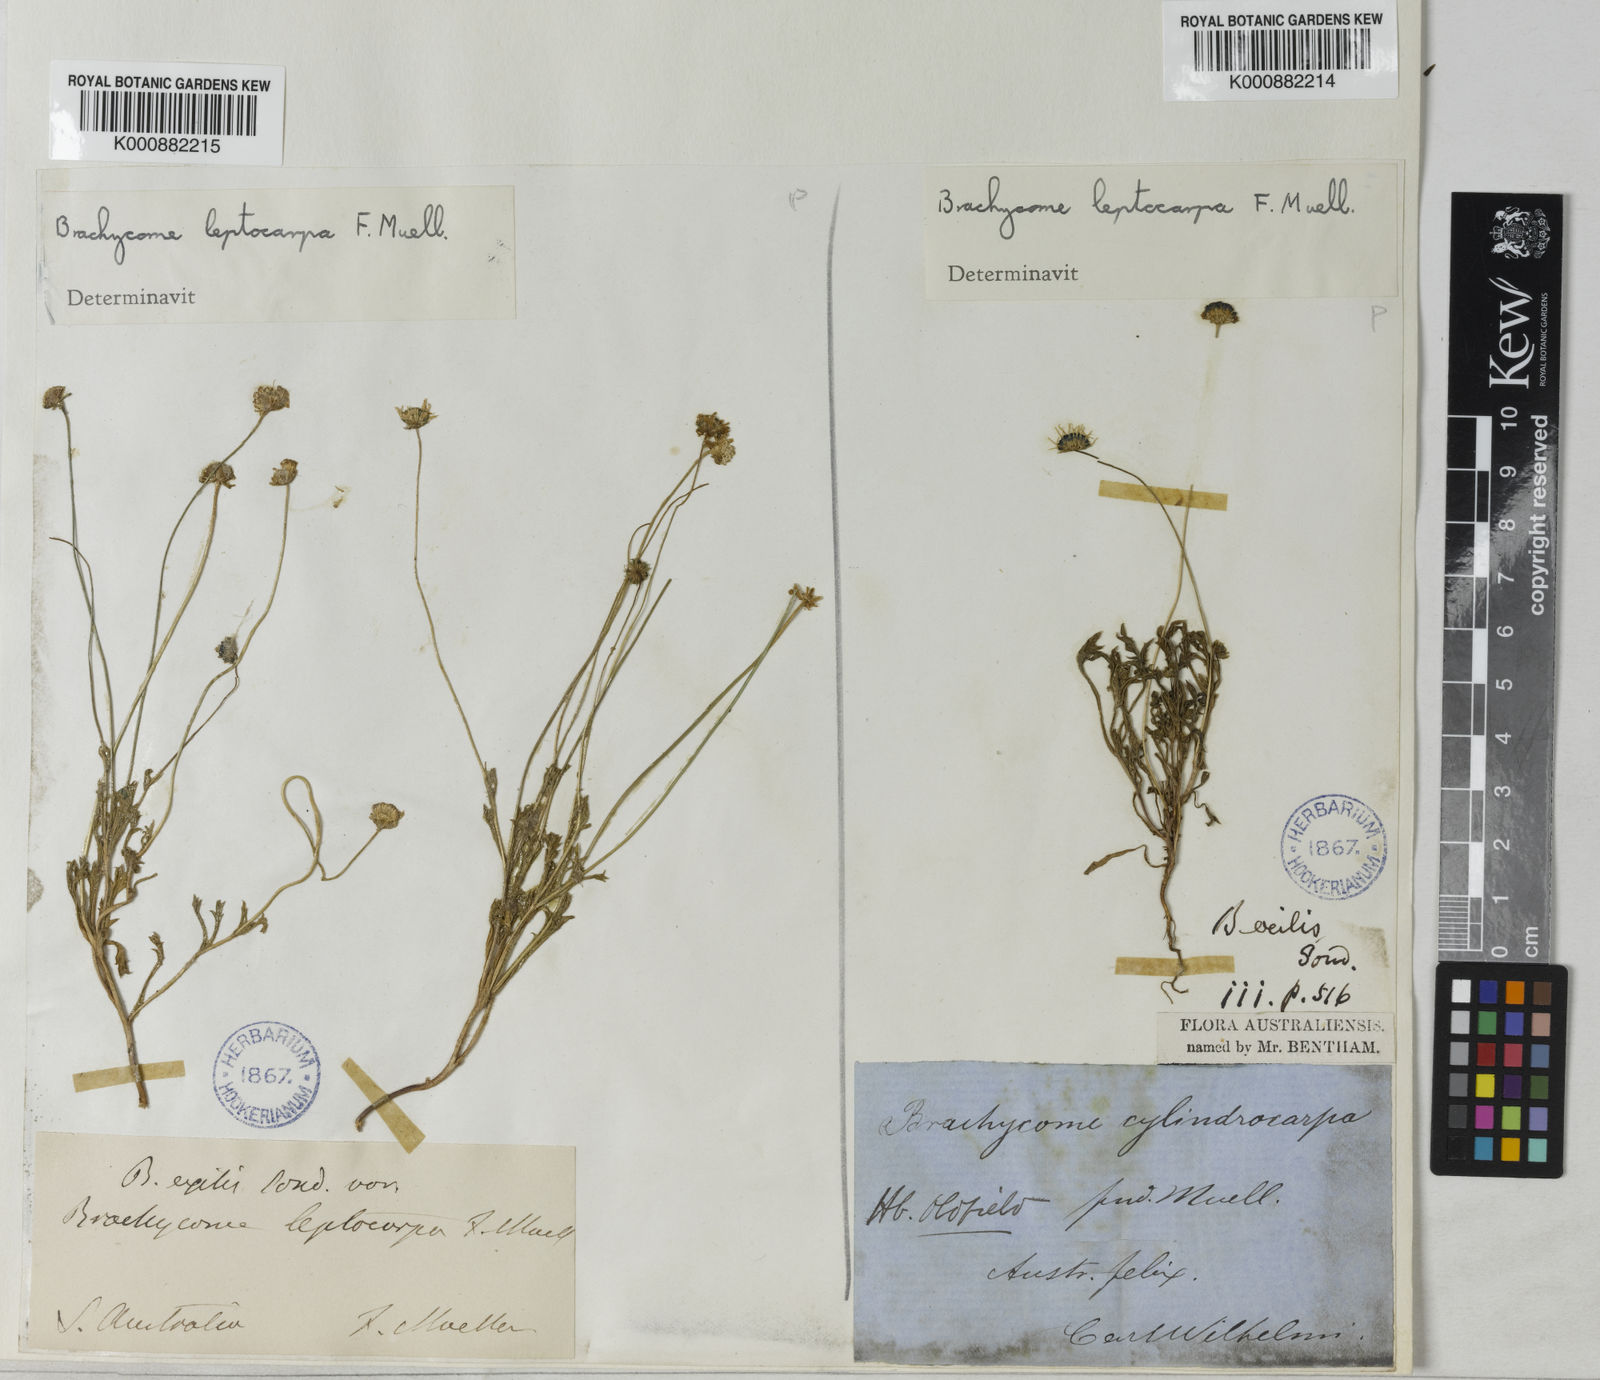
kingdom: Plantae
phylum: Tracheophyta
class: Magnoliopsida
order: Asterales
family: Asteraceae
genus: Brachyscome
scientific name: Brachyscome leptocarpa
